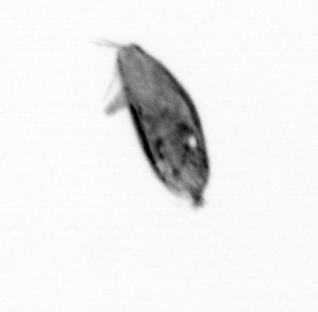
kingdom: Animalia
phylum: Arthropoda
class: Maxillopoda
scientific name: Maxillopoda
